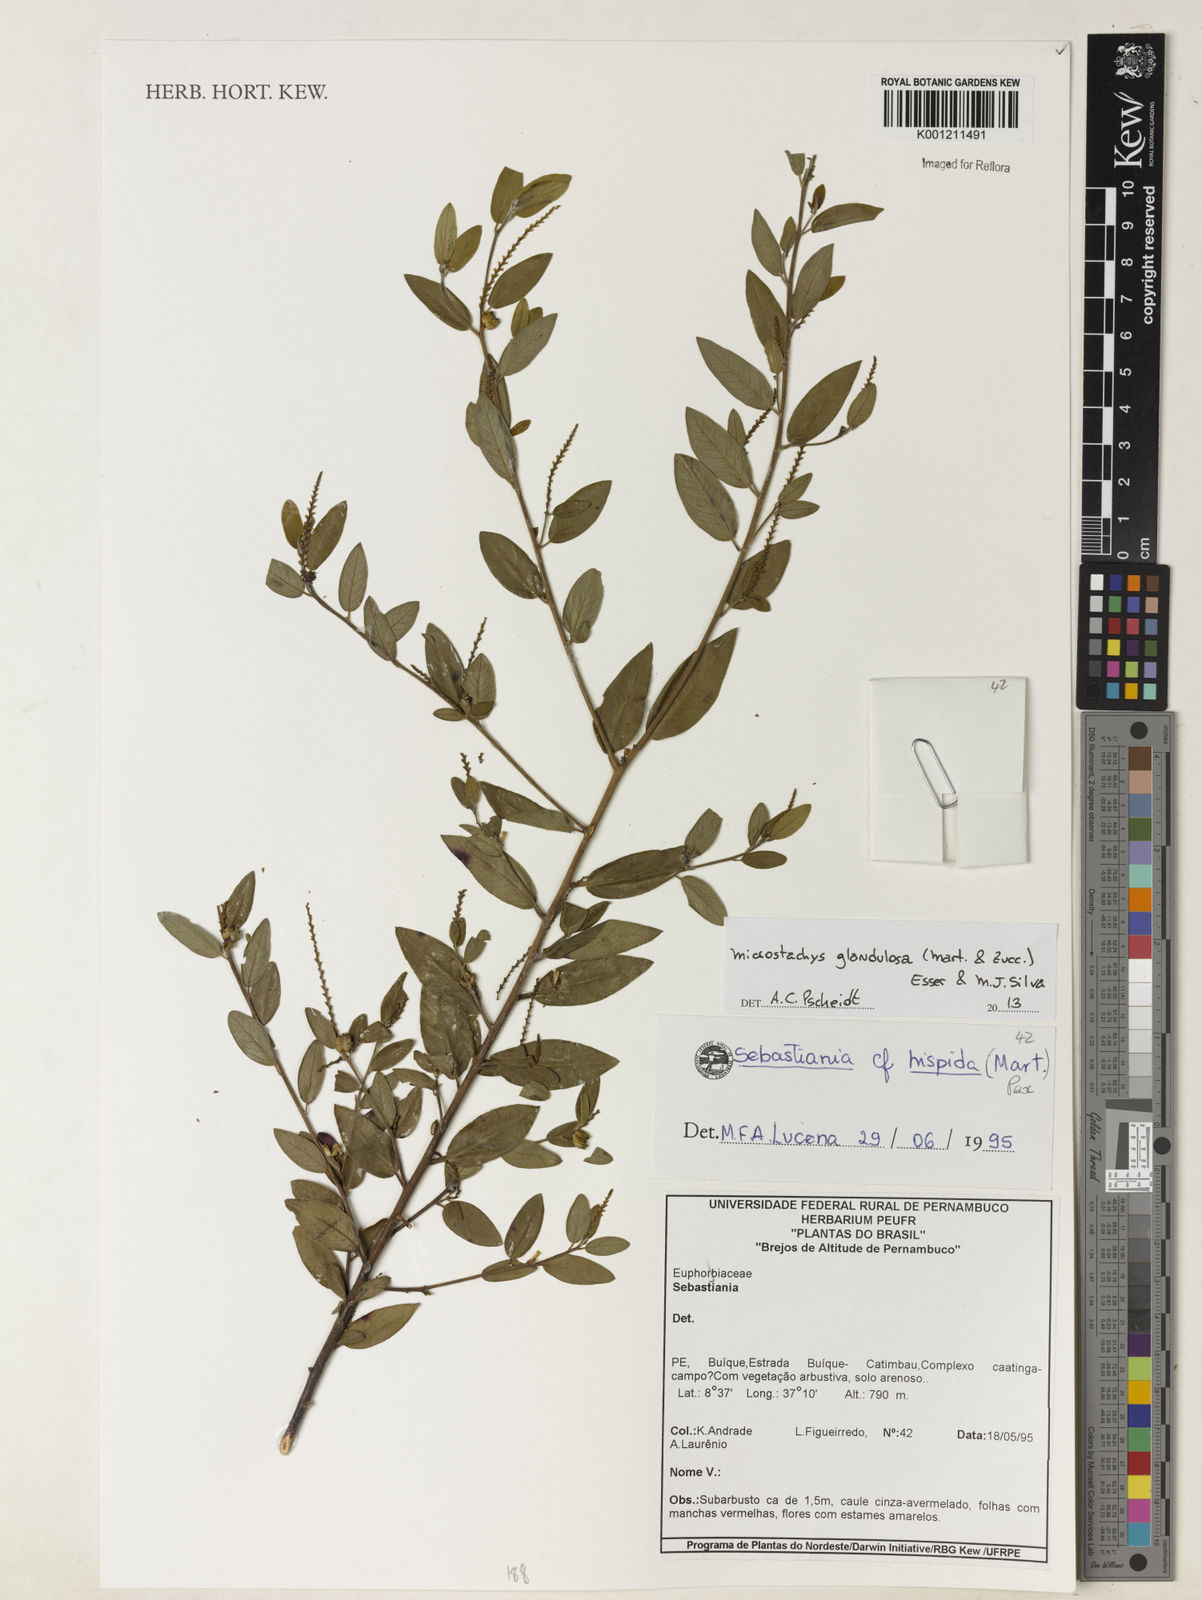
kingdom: Plantae
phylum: Tracheophyta
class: Magnoliopsida
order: Malpighiales
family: Euphorbiaceae
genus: Microstachys
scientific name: Microstachys glandulosa
